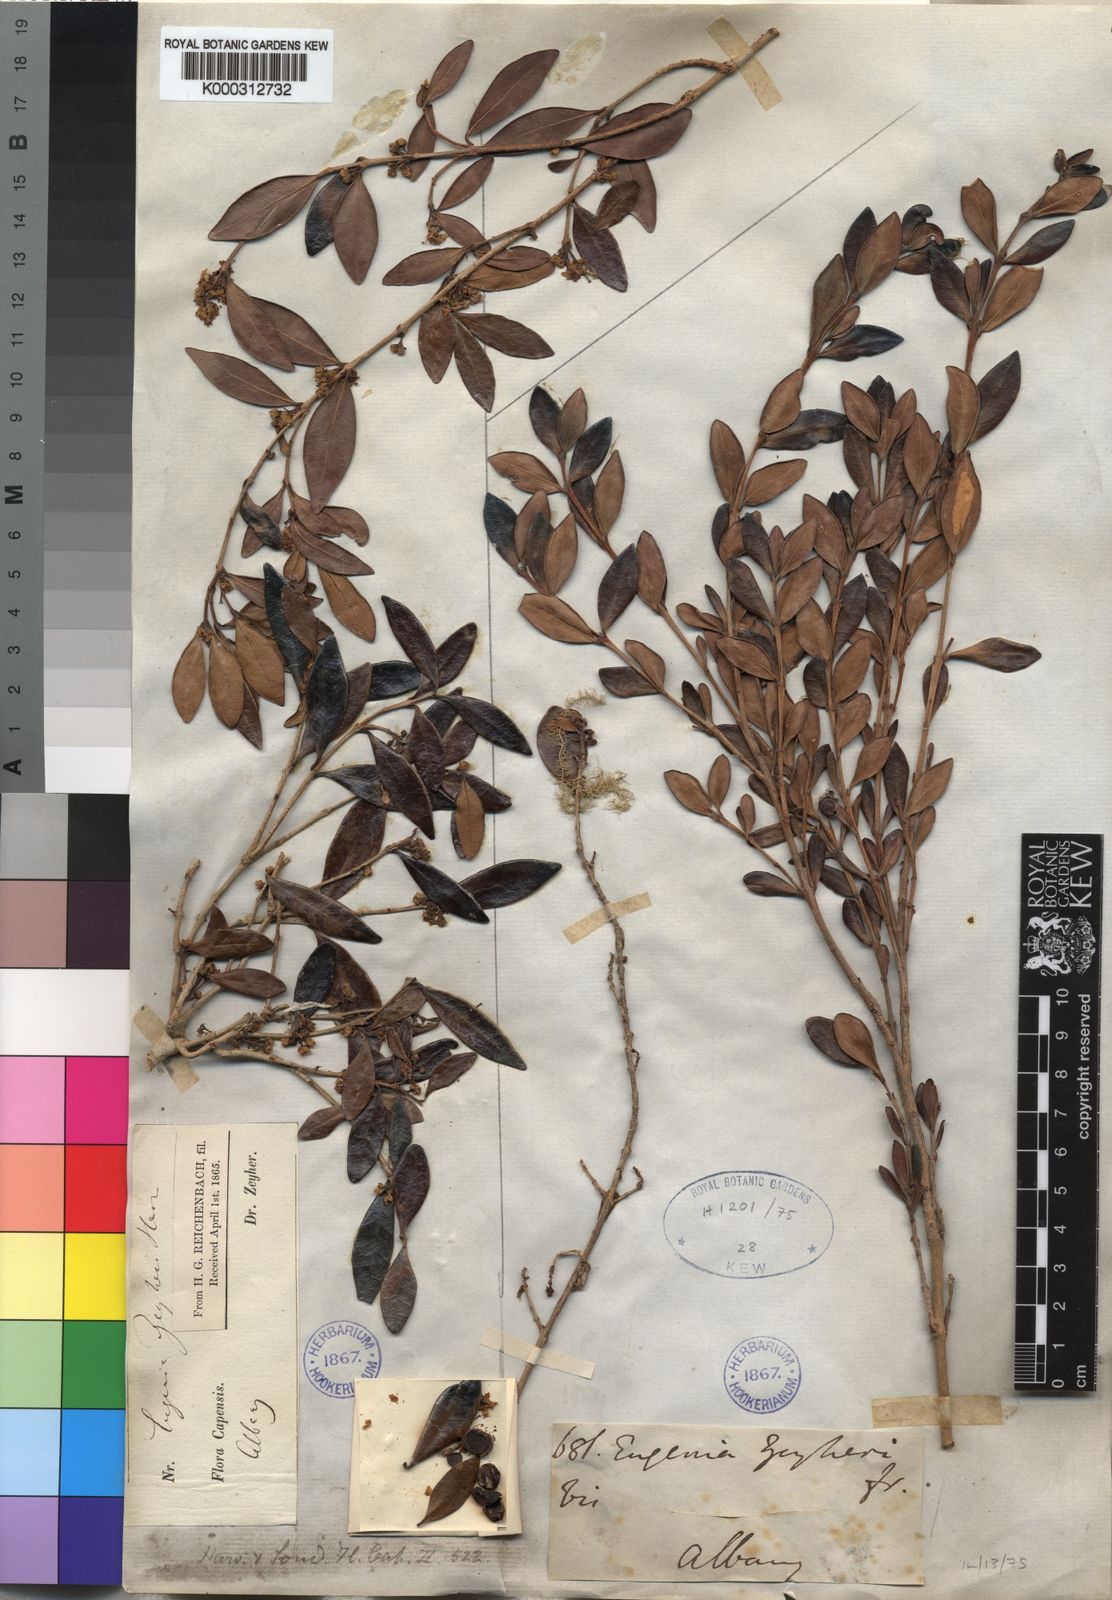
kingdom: Plantae
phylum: Tracheophyta
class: Magnoliopsida
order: Myrtales
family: Myrtaceae
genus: Eugenia
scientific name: Eugenia zeyheri
